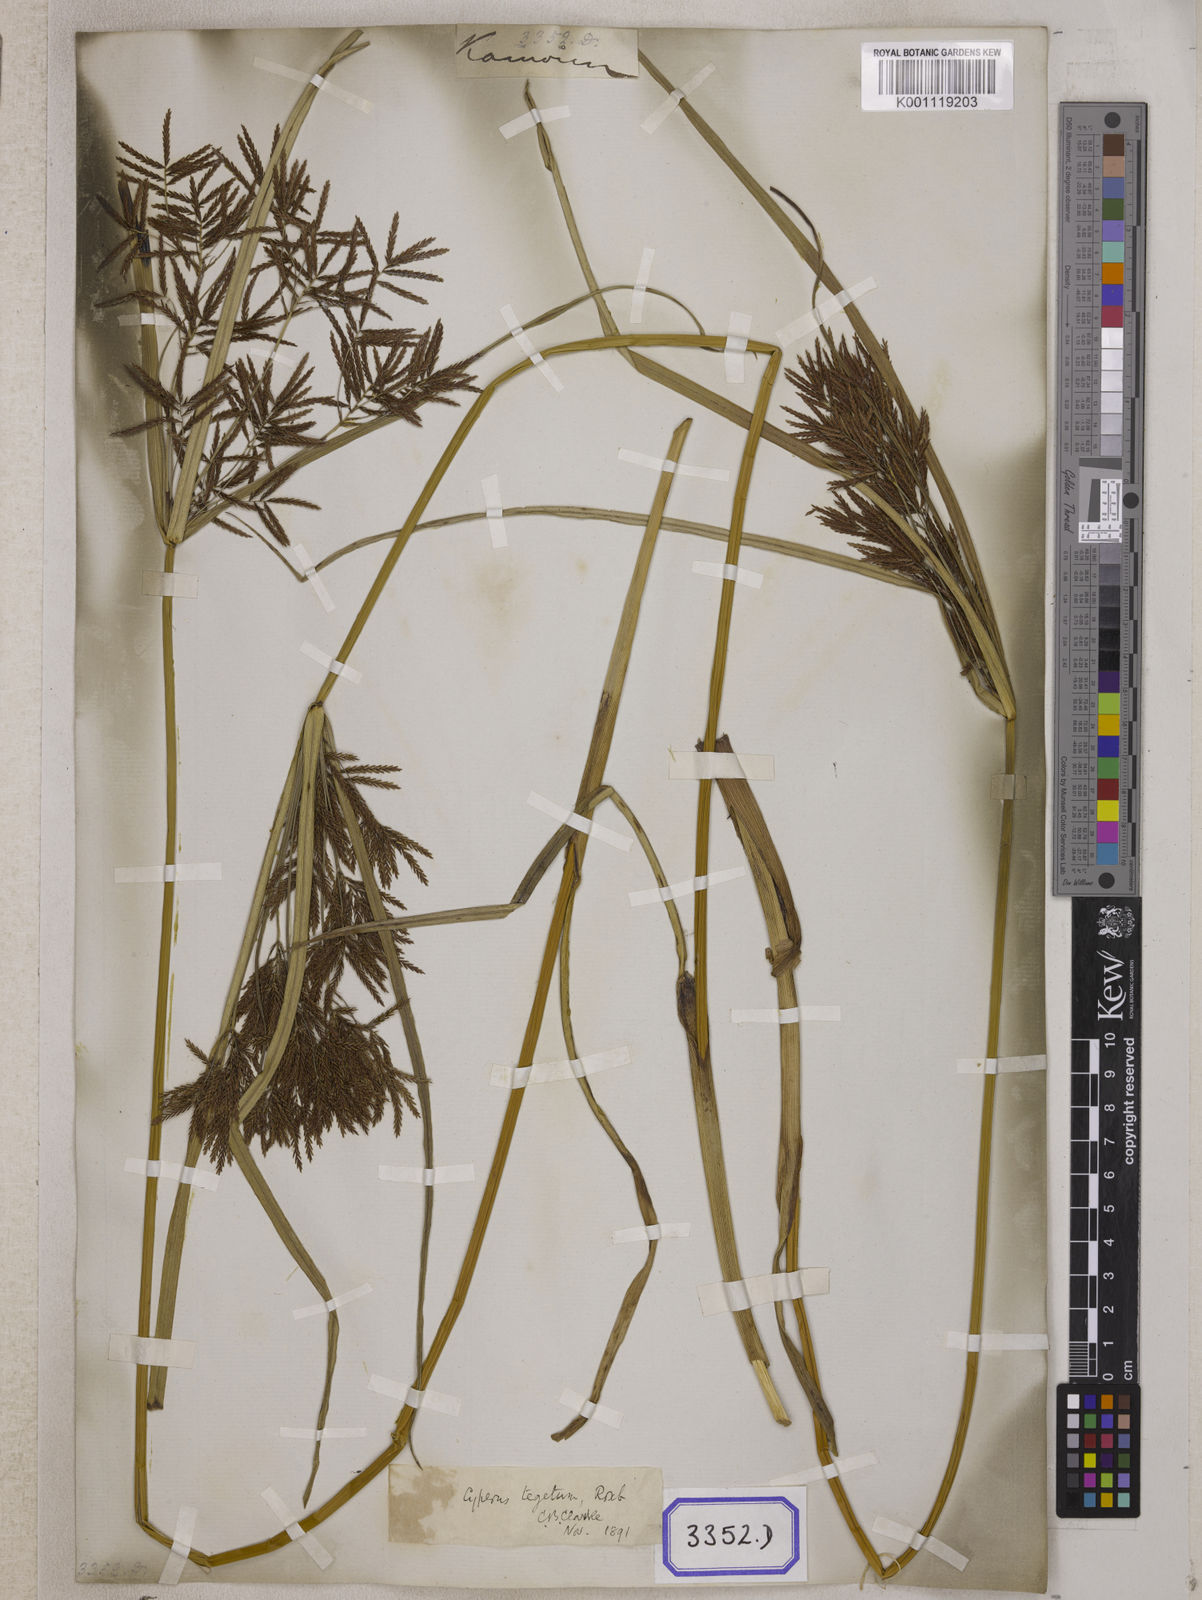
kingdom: Plantae
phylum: Tracheophyta
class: Liliopsida
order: Poales
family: Cyperaceae
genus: Cyperus
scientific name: Cyperus
